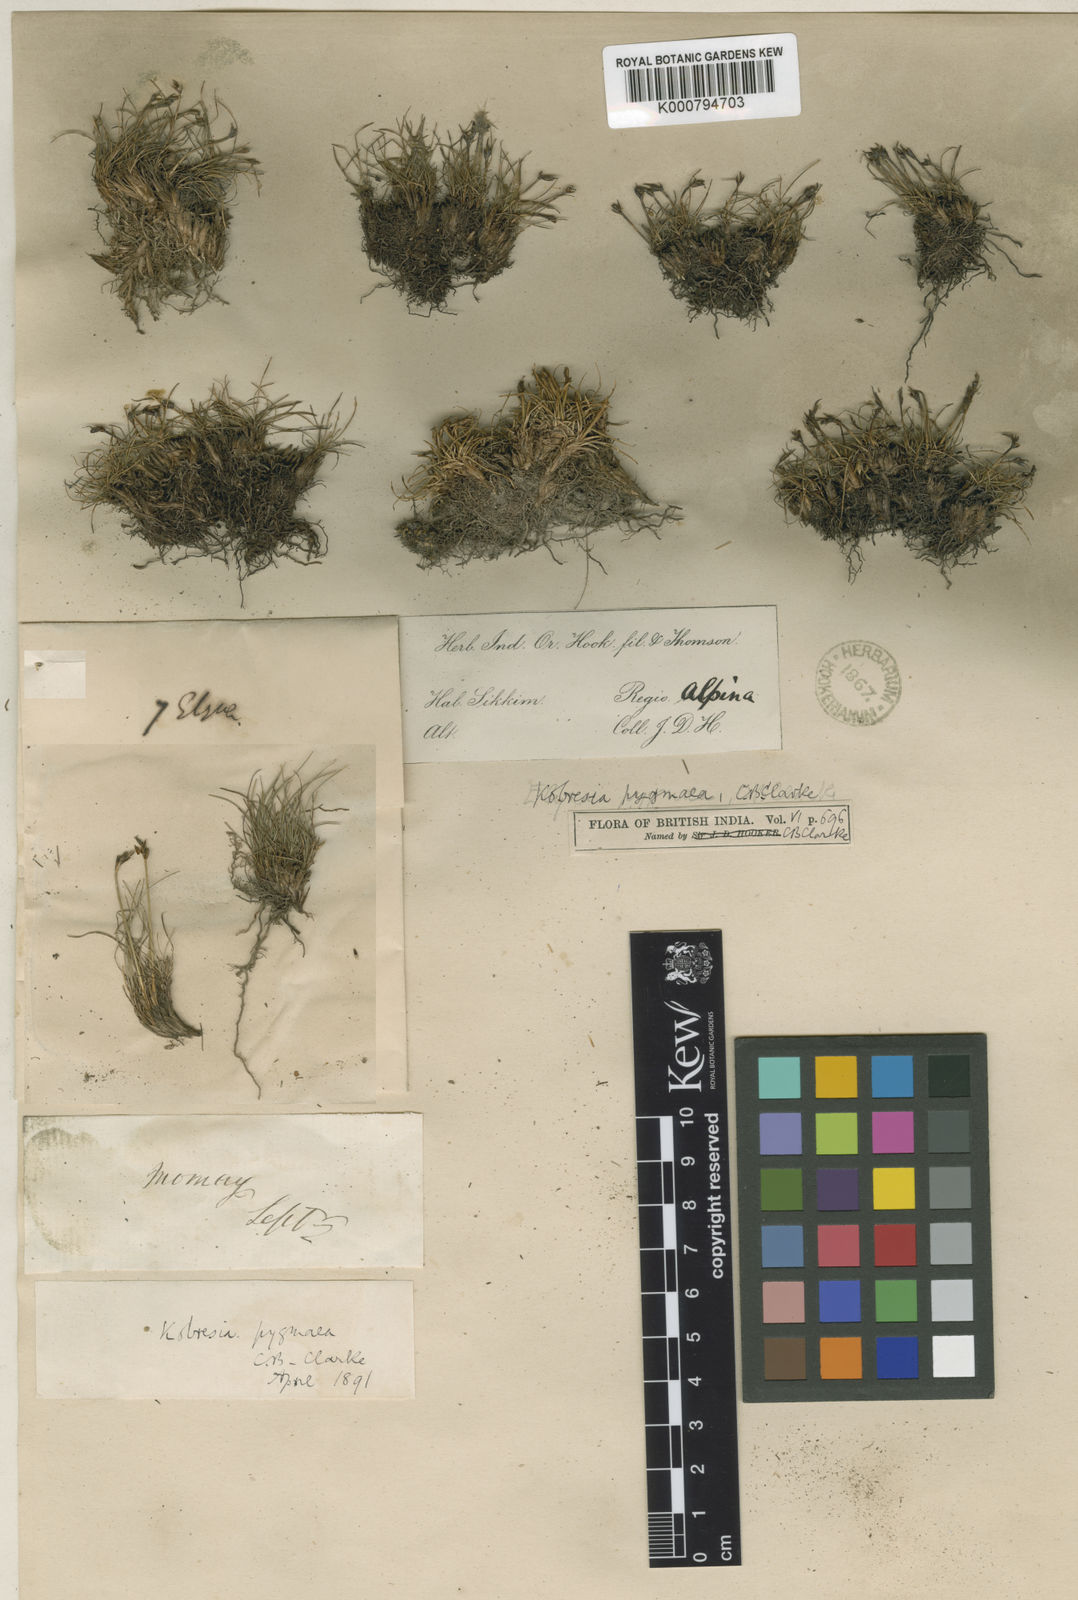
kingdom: Plantae
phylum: Tracheophyta
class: Liliopsida
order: Poales
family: Cyperaceae
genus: Carex
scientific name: Carex parvula
